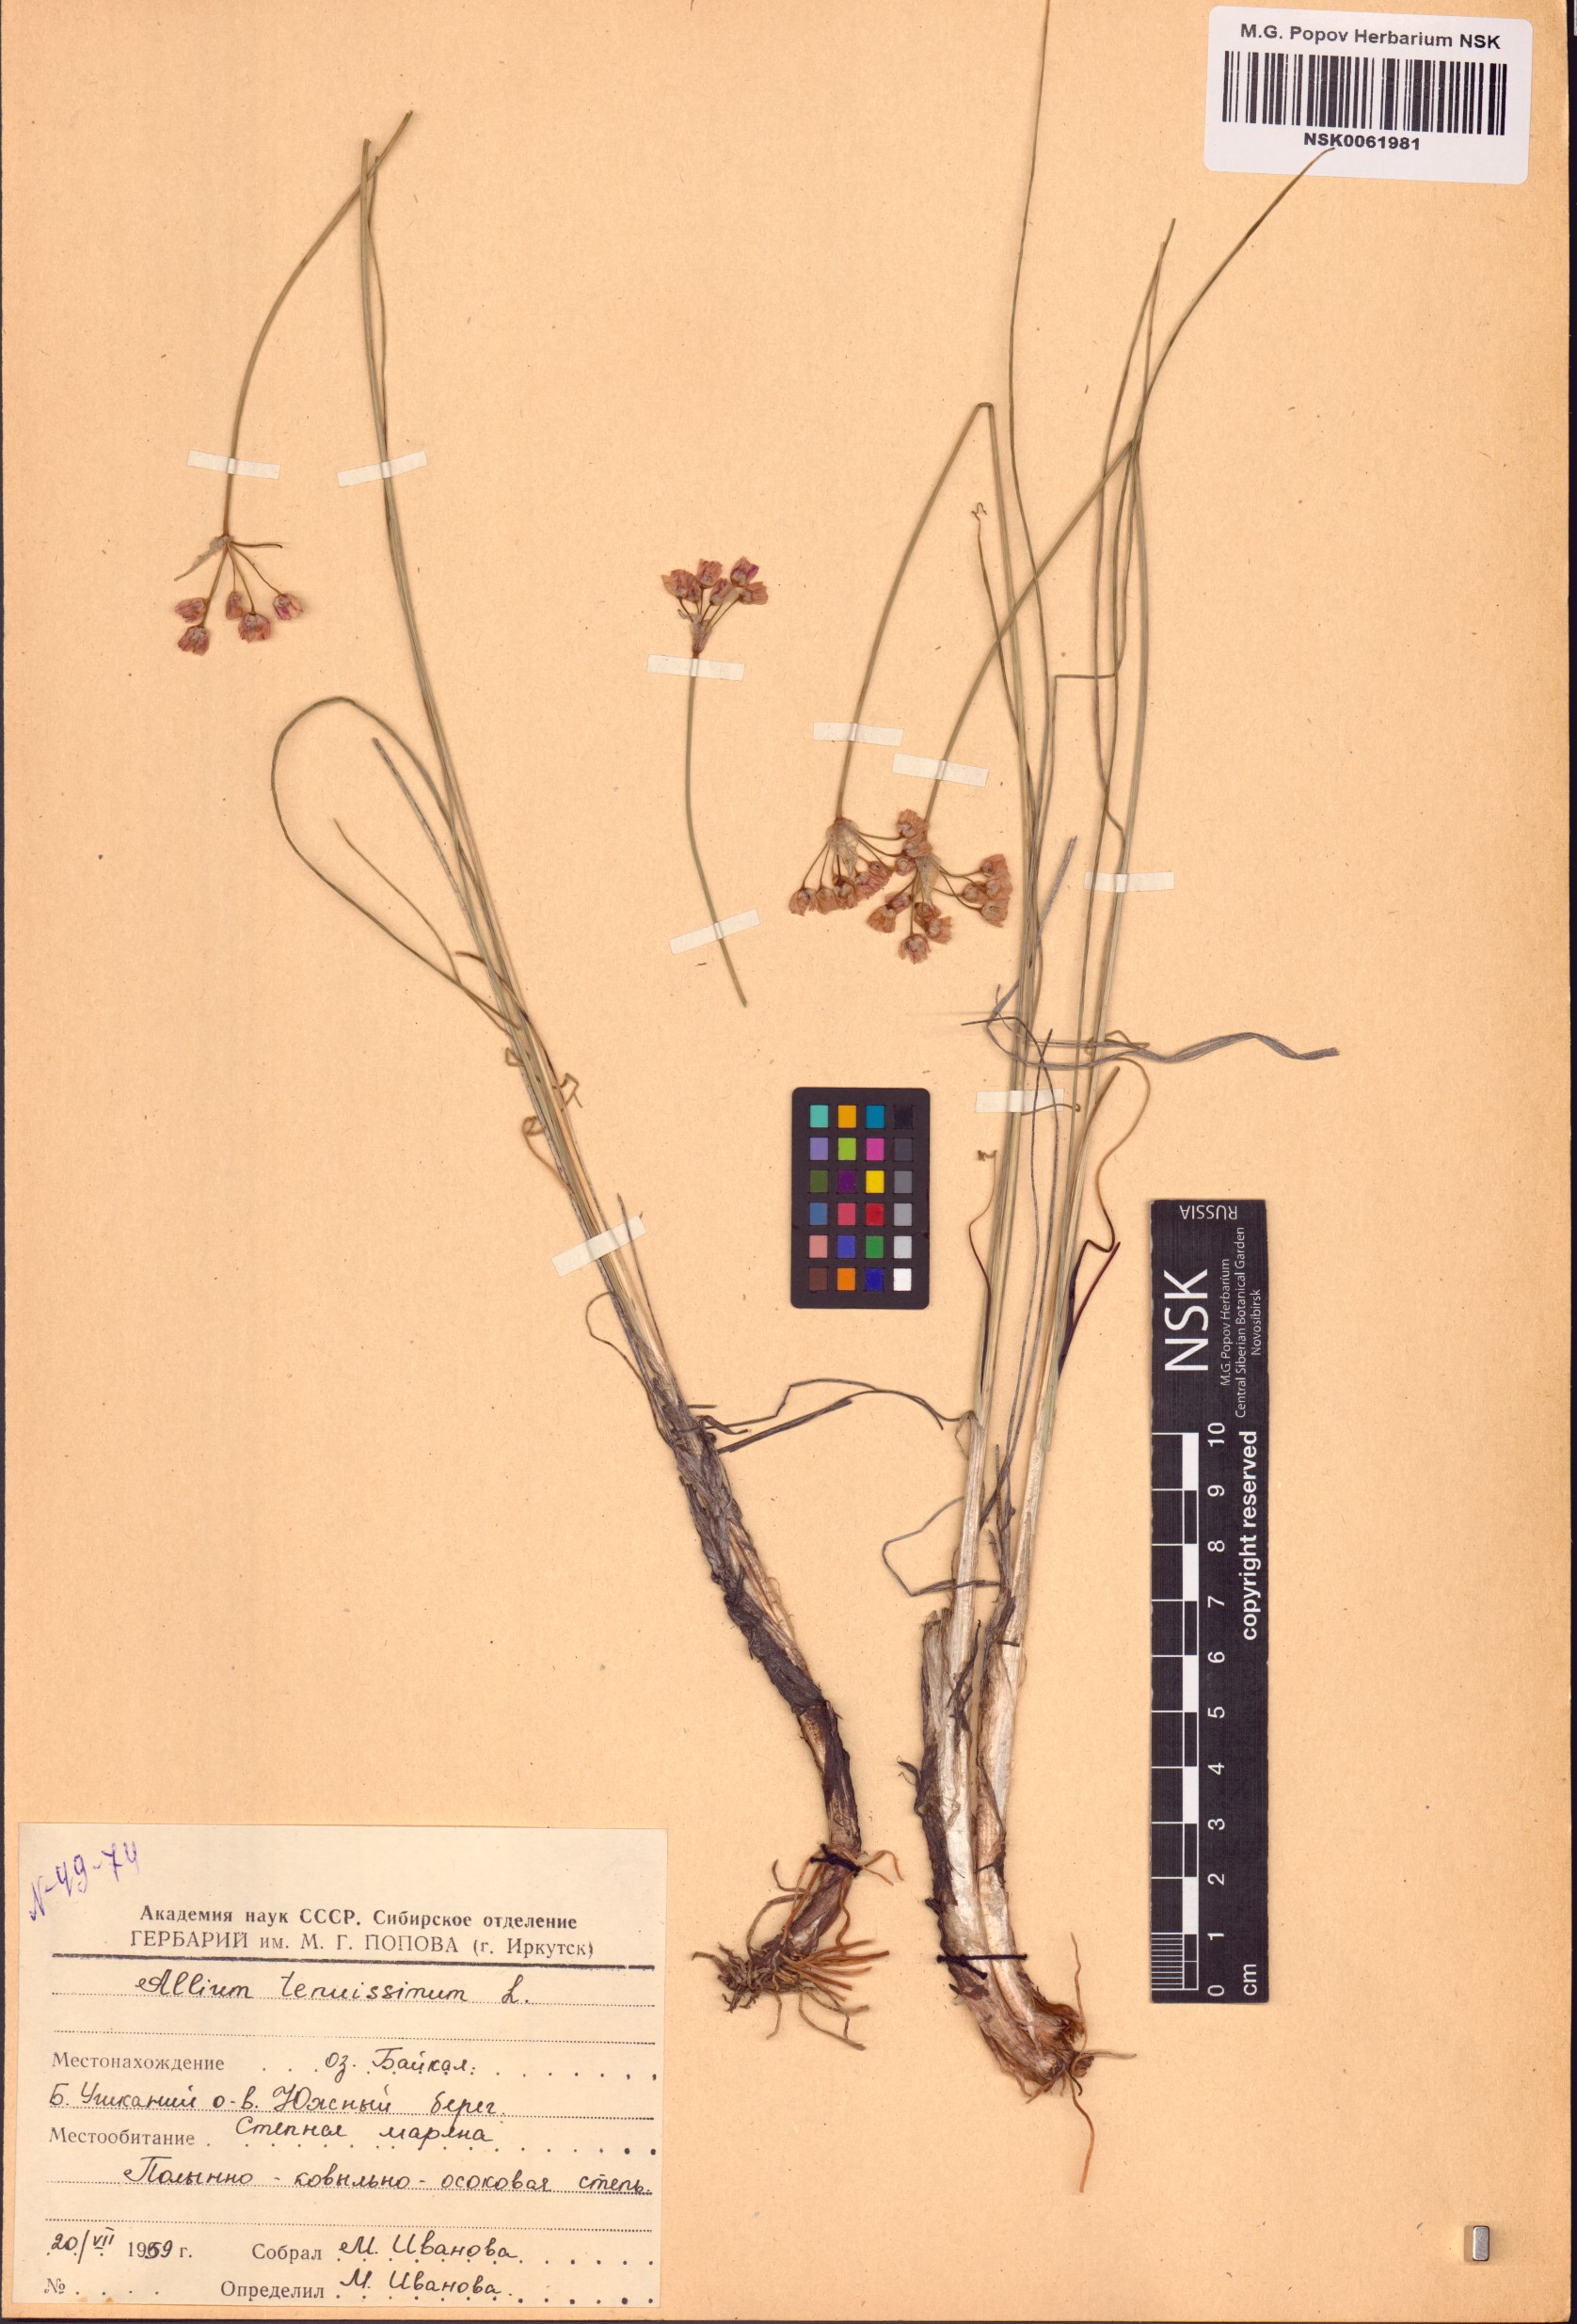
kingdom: Plantae
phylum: Tracheophyta
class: Liliopsida
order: Asparagales
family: Amaryllidaceae
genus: Allium
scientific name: Allium tenuissimum
